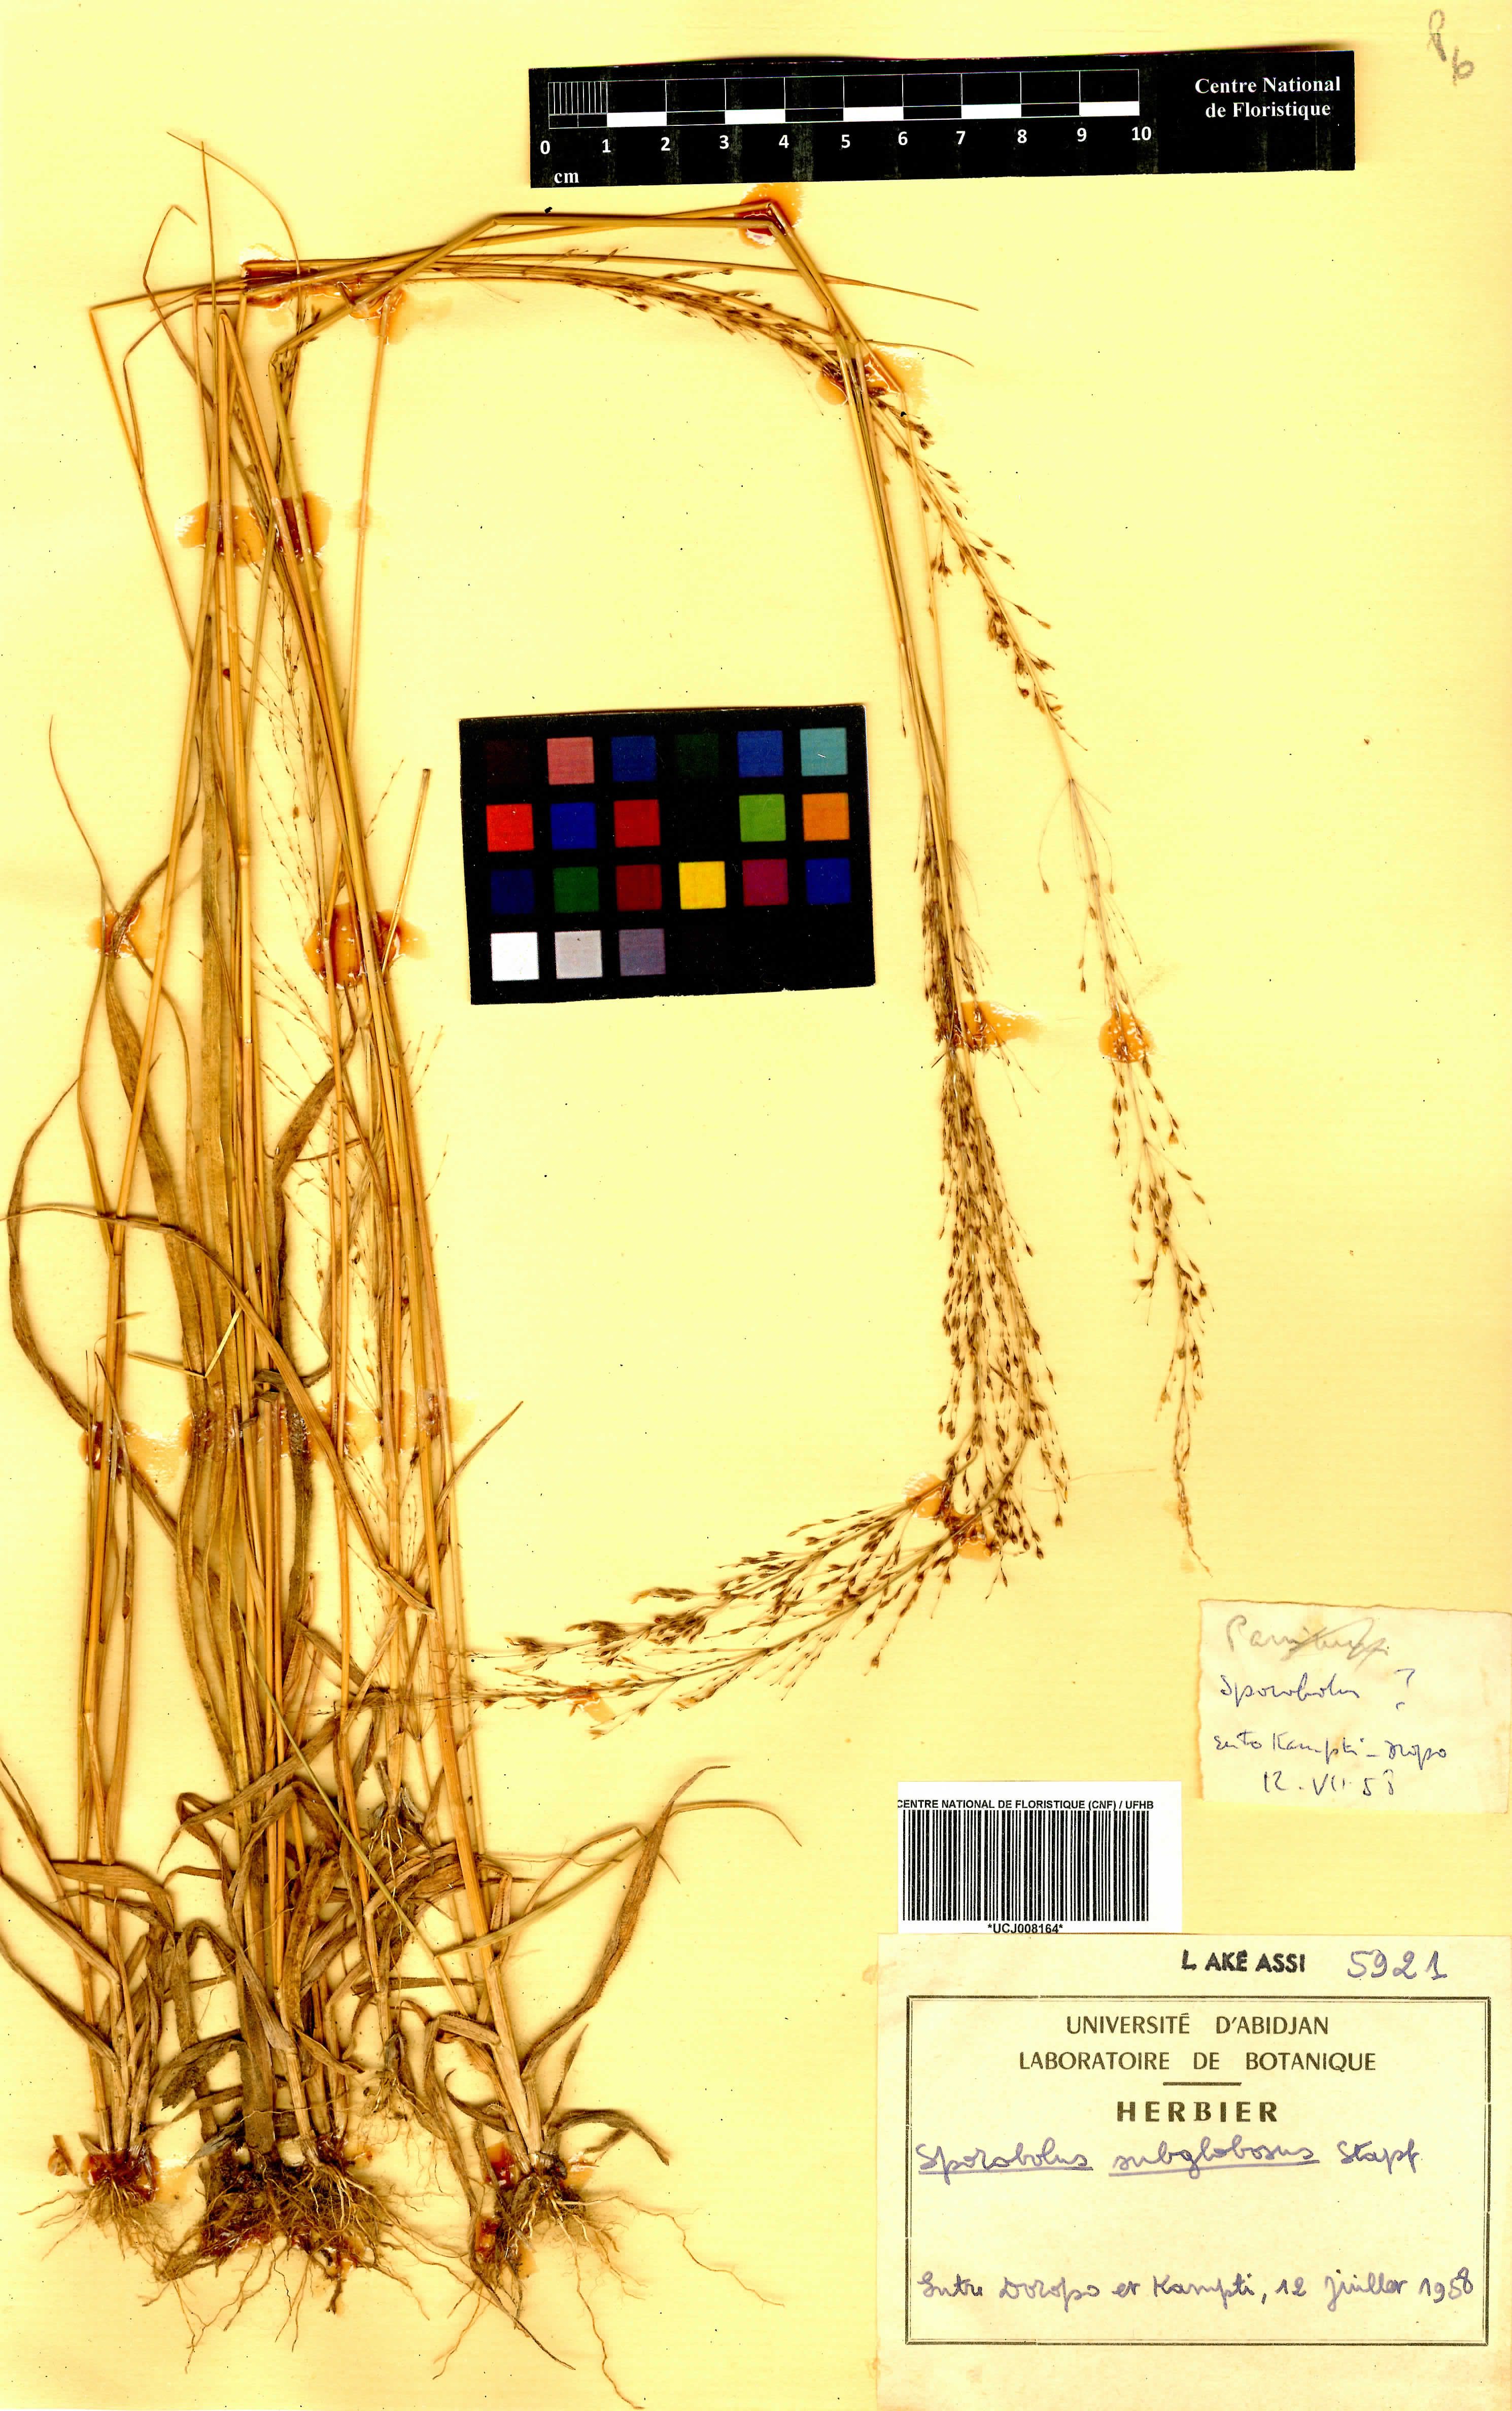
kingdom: Plantae
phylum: Tracheophyta
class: Liliopsida
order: Poales
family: Poaceae
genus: Sporobolus
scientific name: Sporobolus subglobosus
